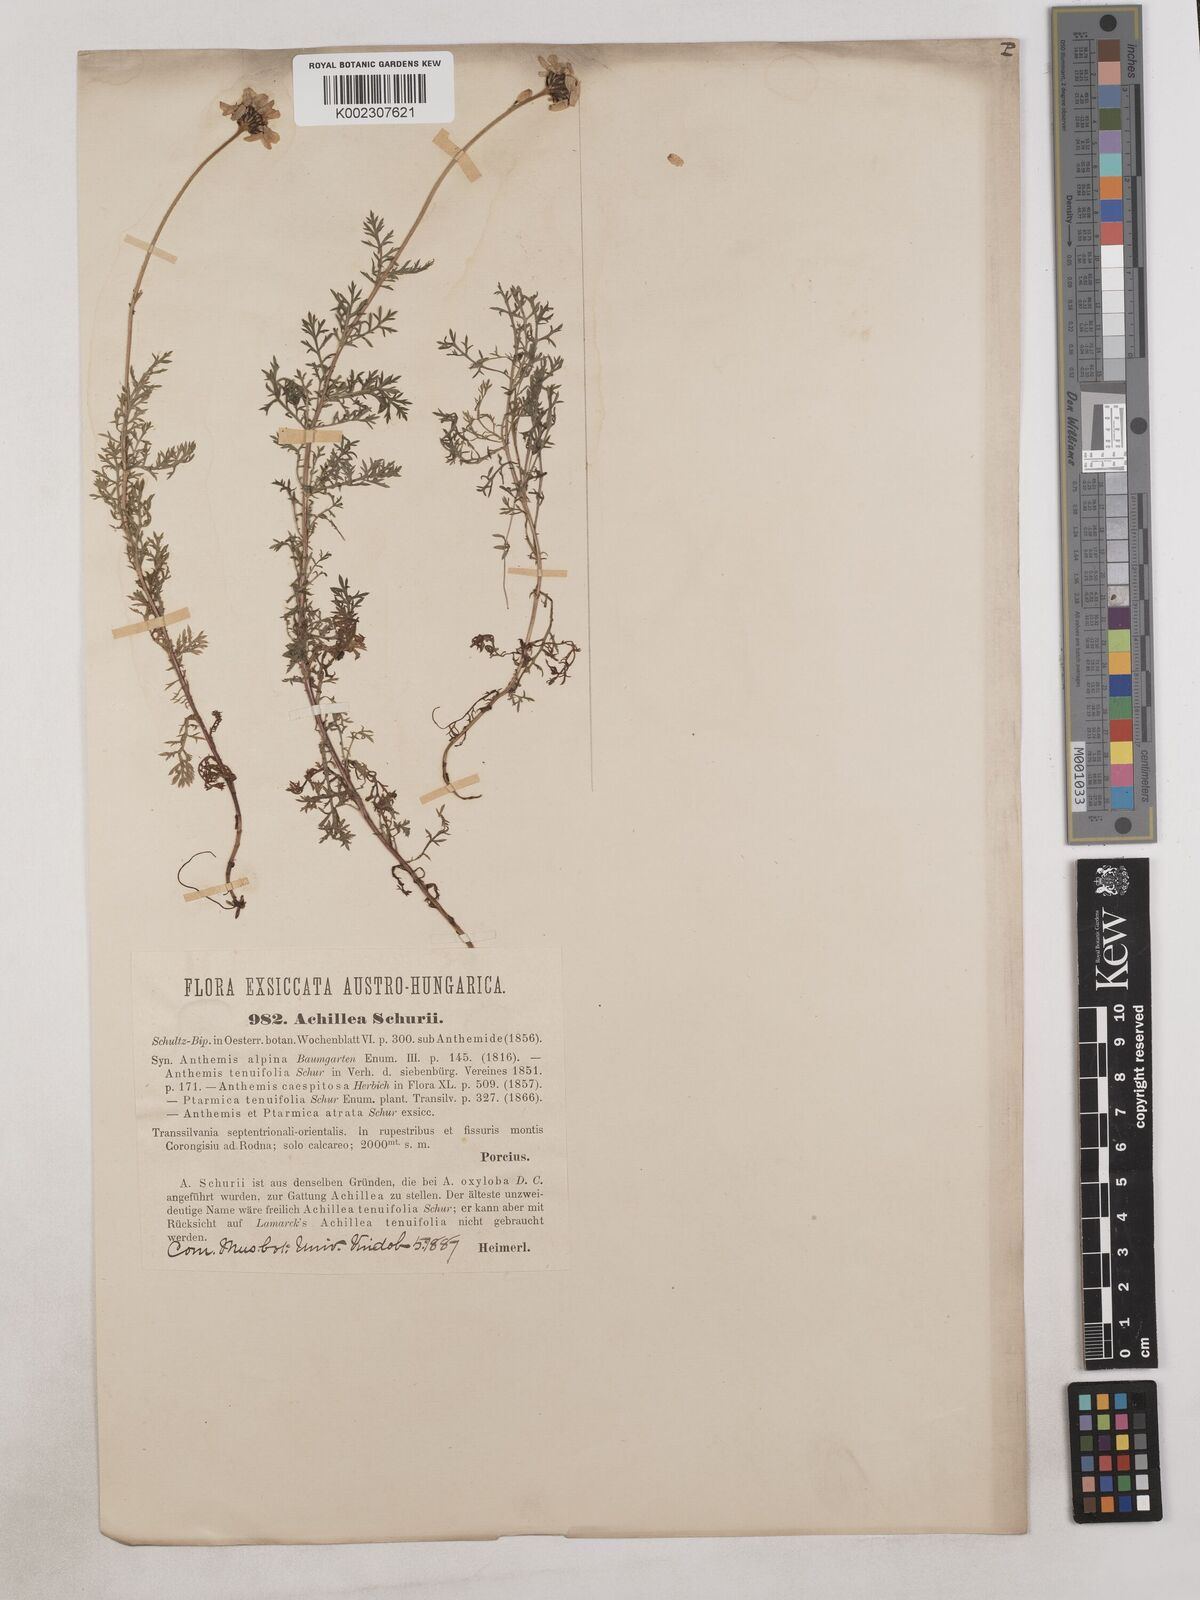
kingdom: Plantae
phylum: Tracheophyta
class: Magnoliopsida
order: Asterales
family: Asteraceae
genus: Achillea
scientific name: Achillea millefolium
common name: Yarrow
